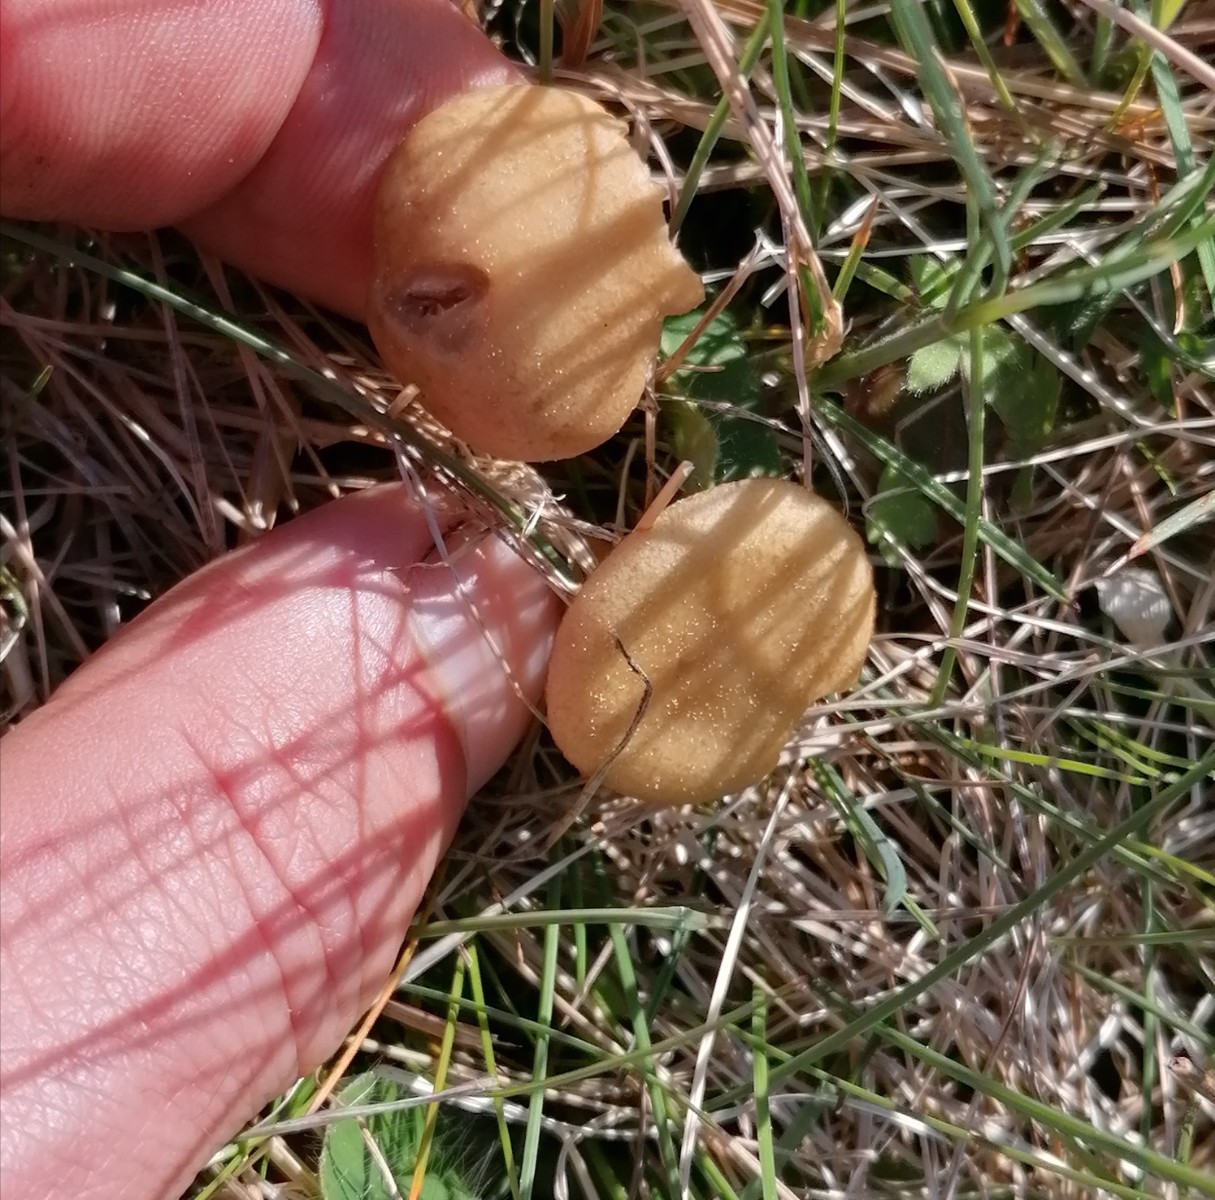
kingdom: Fungi
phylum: Basidiomycota
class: Agaricomycetes
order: Agaricales
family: Strophariaceae
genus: Agrocybe
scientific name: Agrocybe elatella
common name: mose-agerhat
